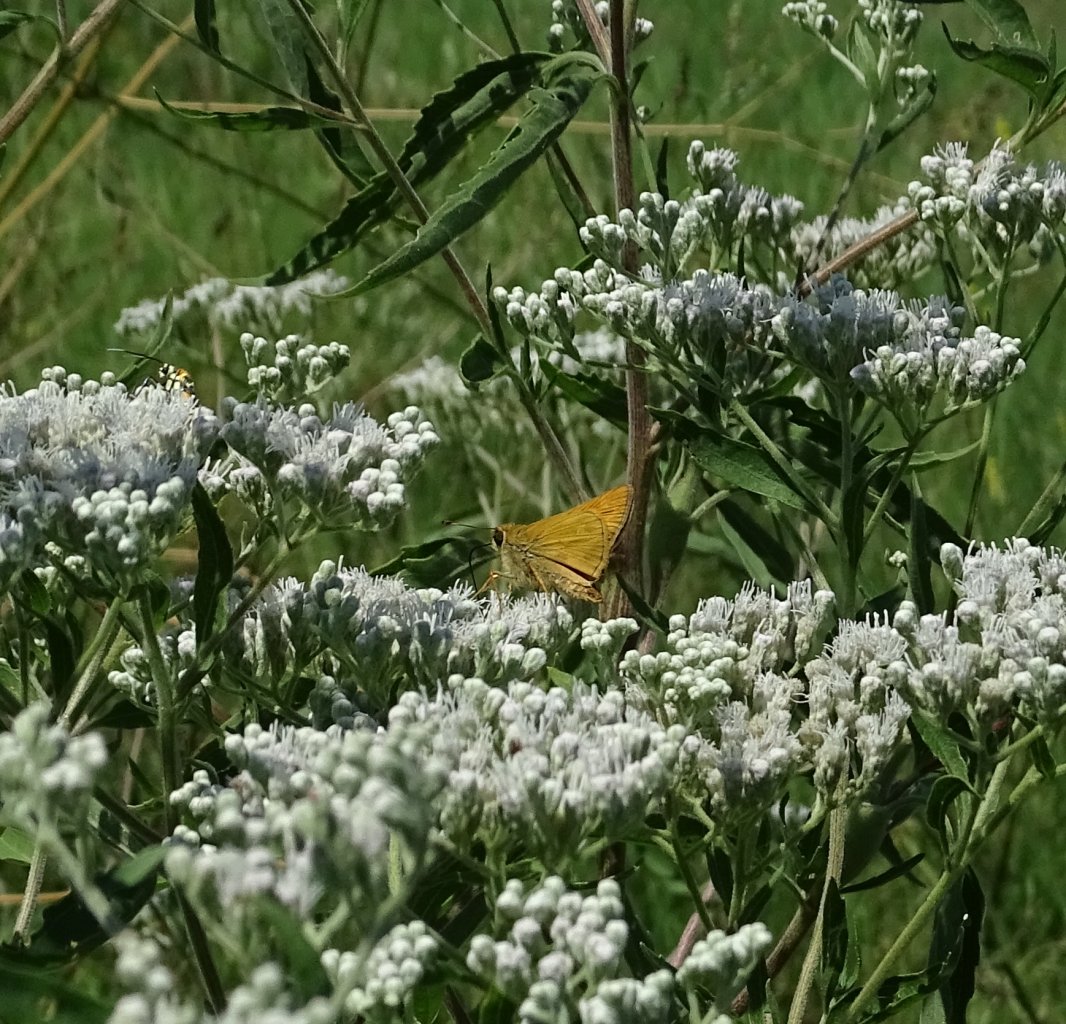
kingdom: Animalia
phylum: Arthropoda
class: Insecta
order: Lepidoptera
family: Hesperiidae
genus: Atalopedes
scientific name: Atalopedes campestris
